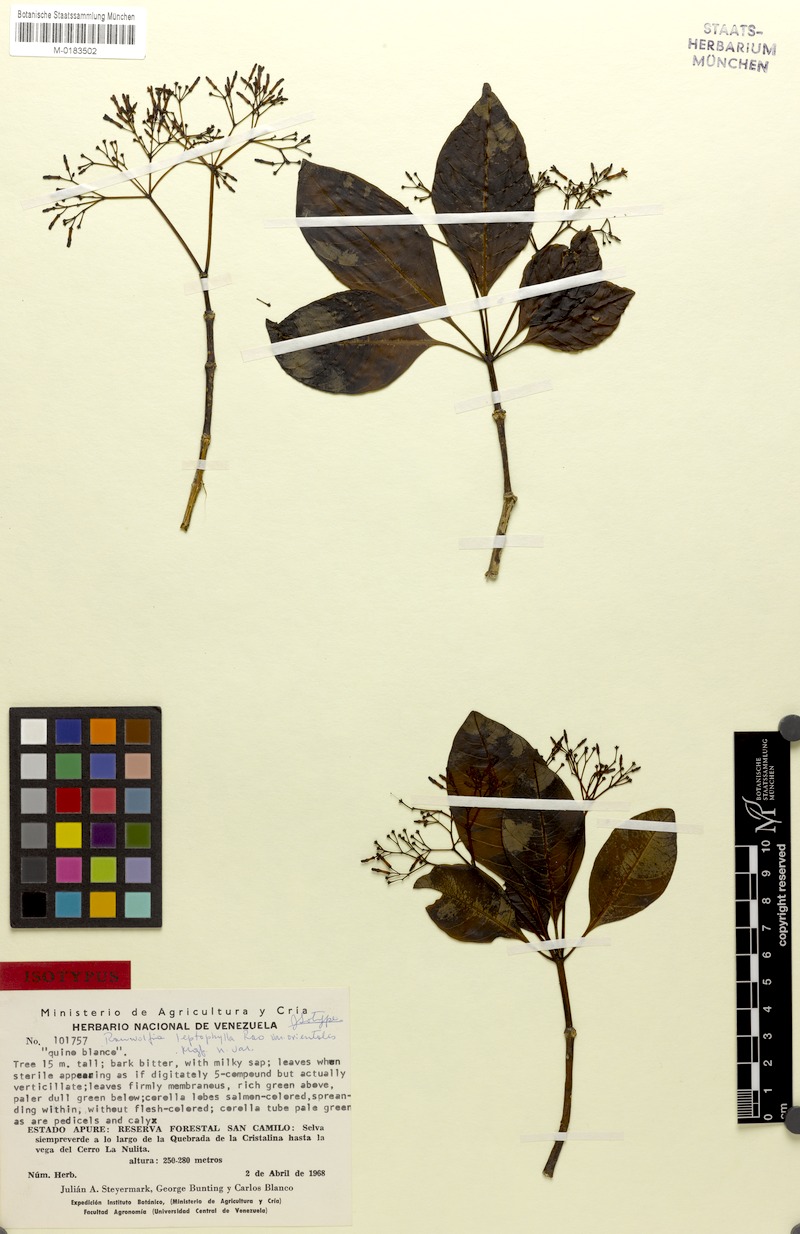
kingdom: Plantae
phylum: Tracheophyta
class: Magnoliopsida
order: Gentianales
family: Apocynaceae
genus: Rauvolfia
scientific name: Rauvolfia leptophylla
